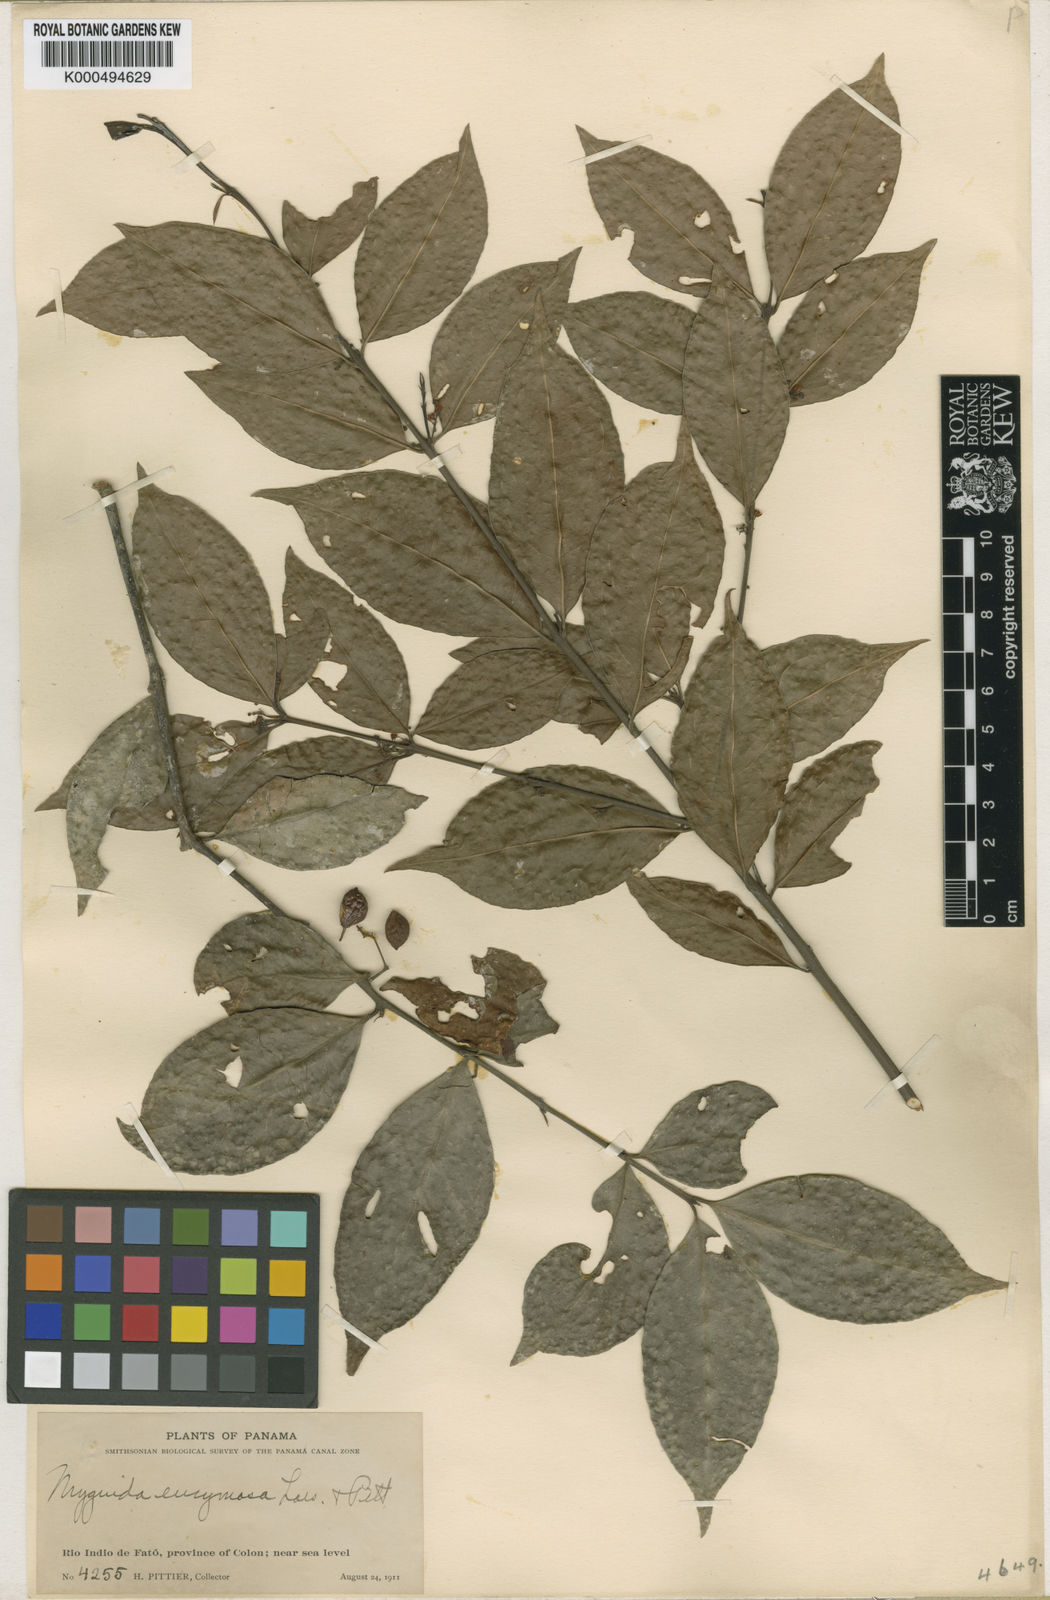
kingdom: Plantae
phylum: Tracheophyta
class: Magnoliopsida
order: Celastrales
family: Celastraceae
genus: Crossopetalum
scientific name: Crossopetalum parviflorum
